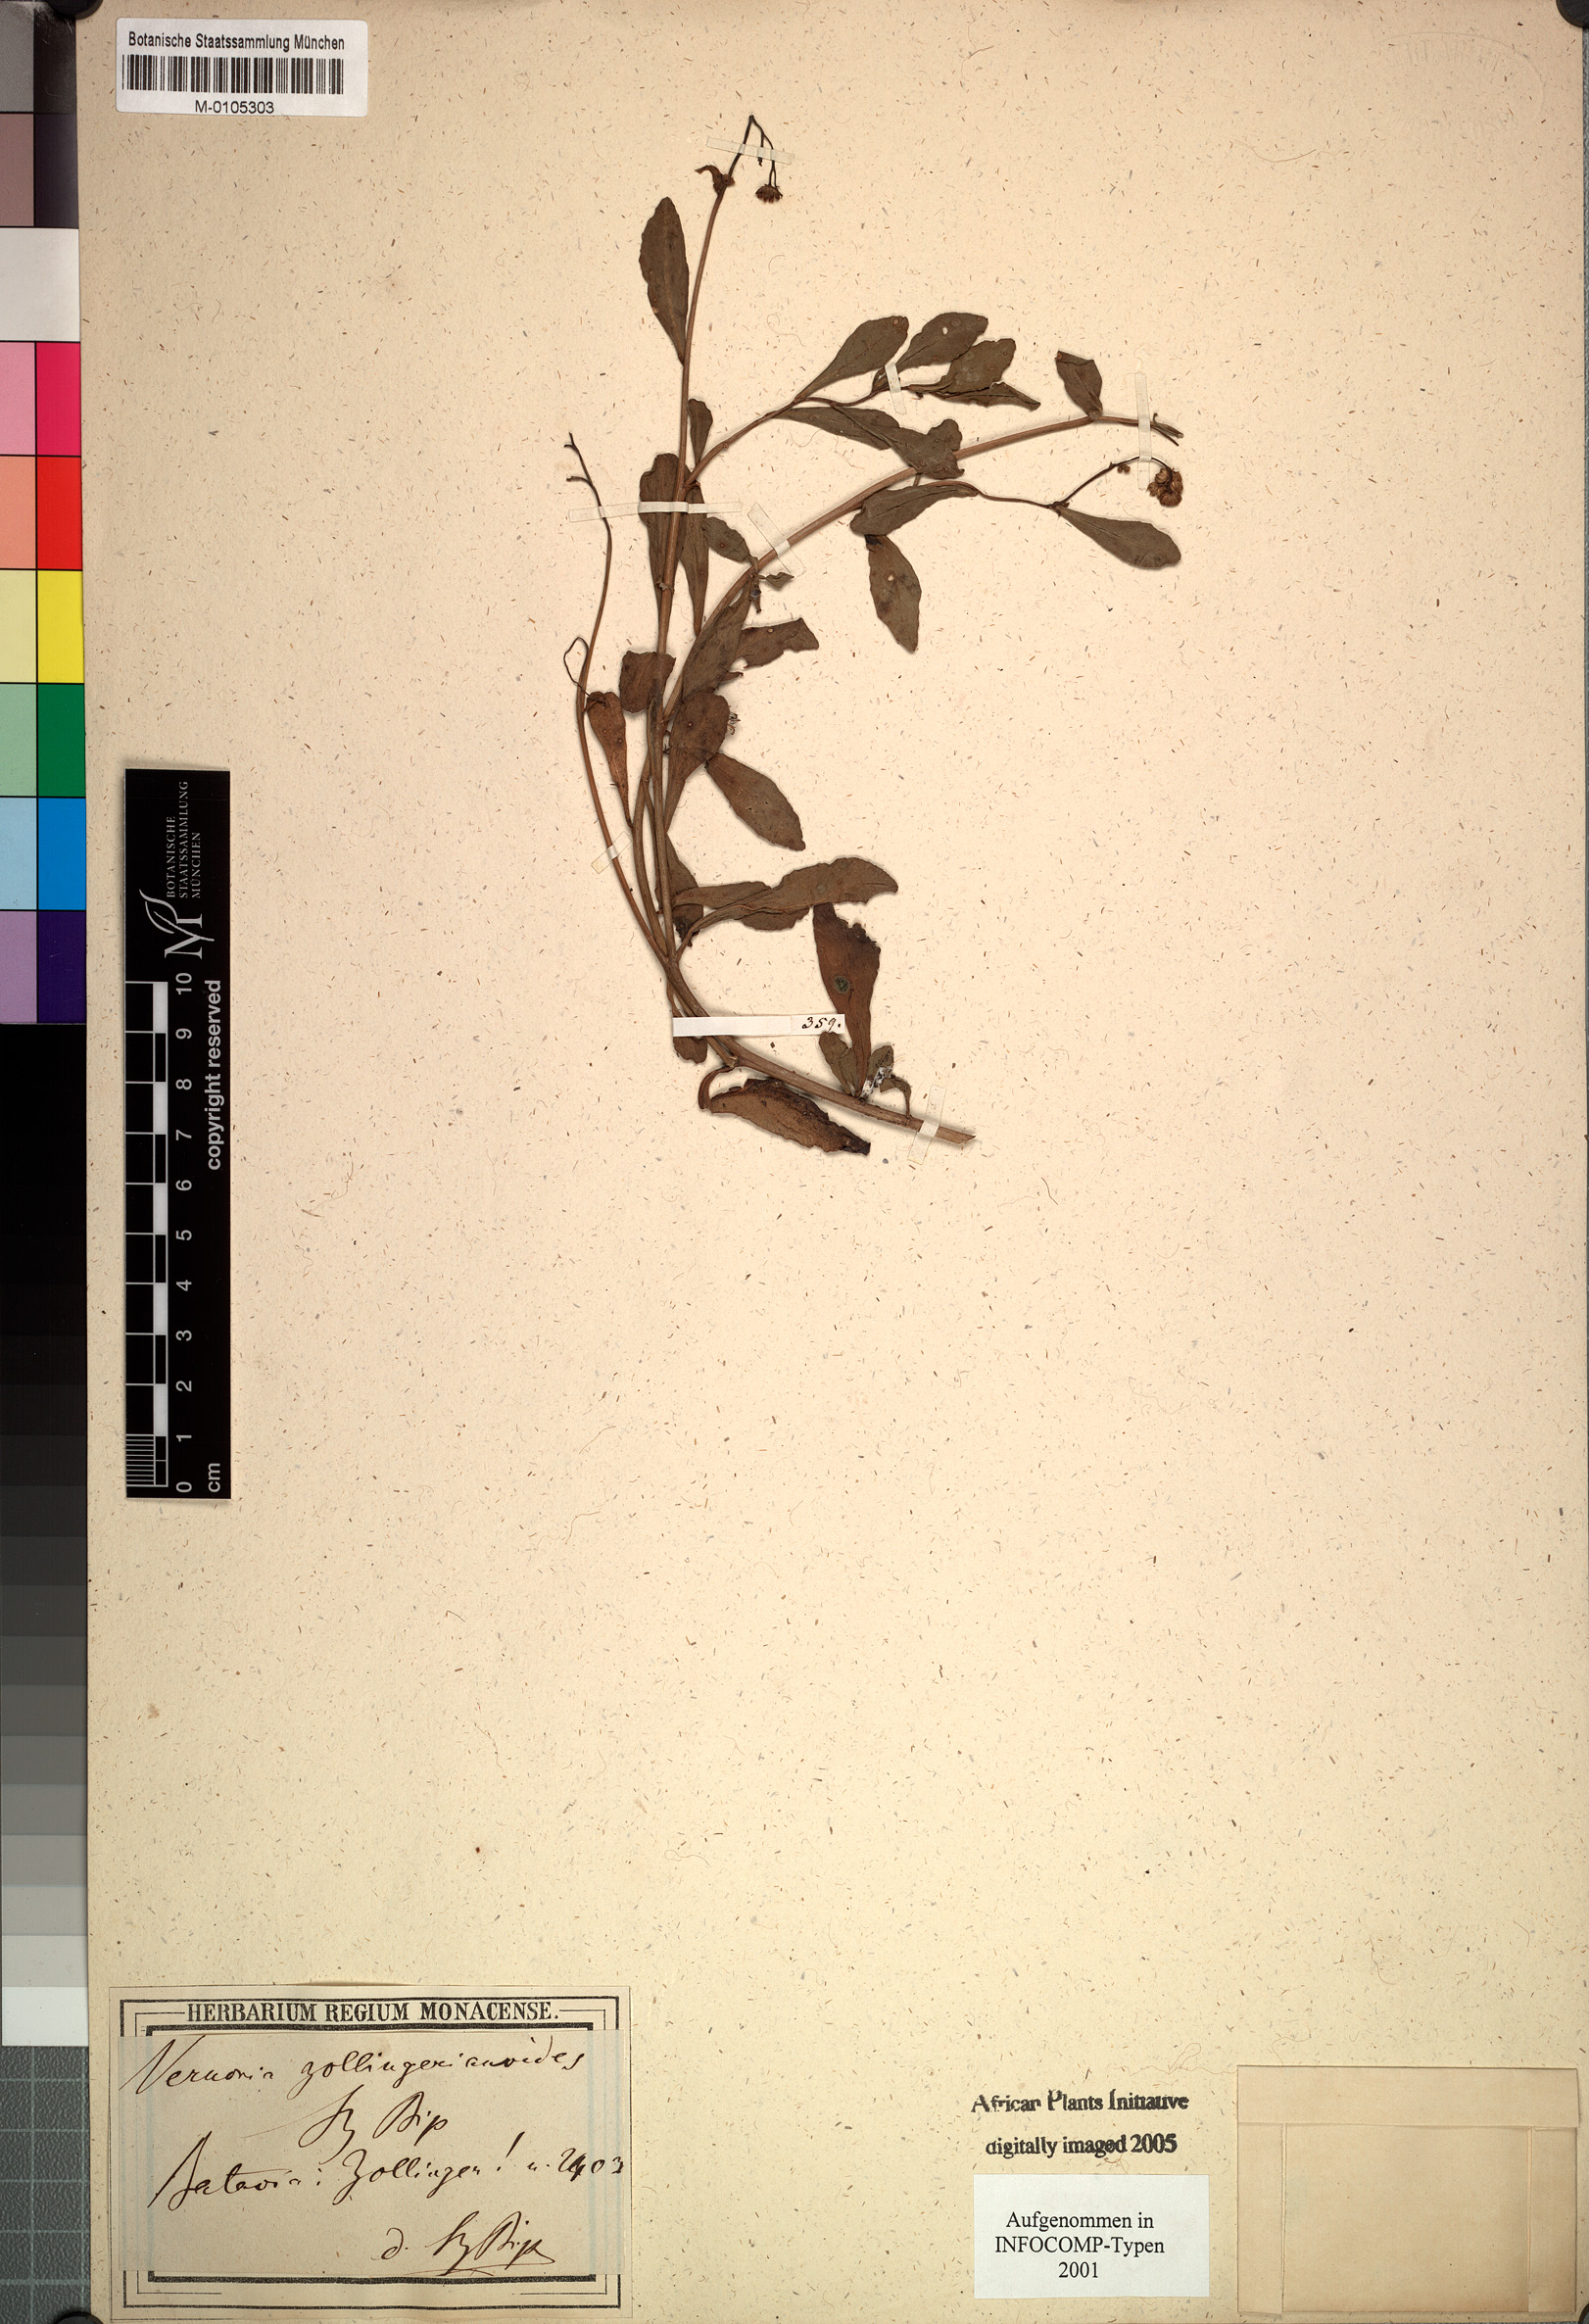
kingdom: Plantae
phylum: Tracheophyta
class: Magnoliopsida
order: Asterales
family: Asteraceae
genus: Vernonia
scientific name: Vernonia zollingerianoides
